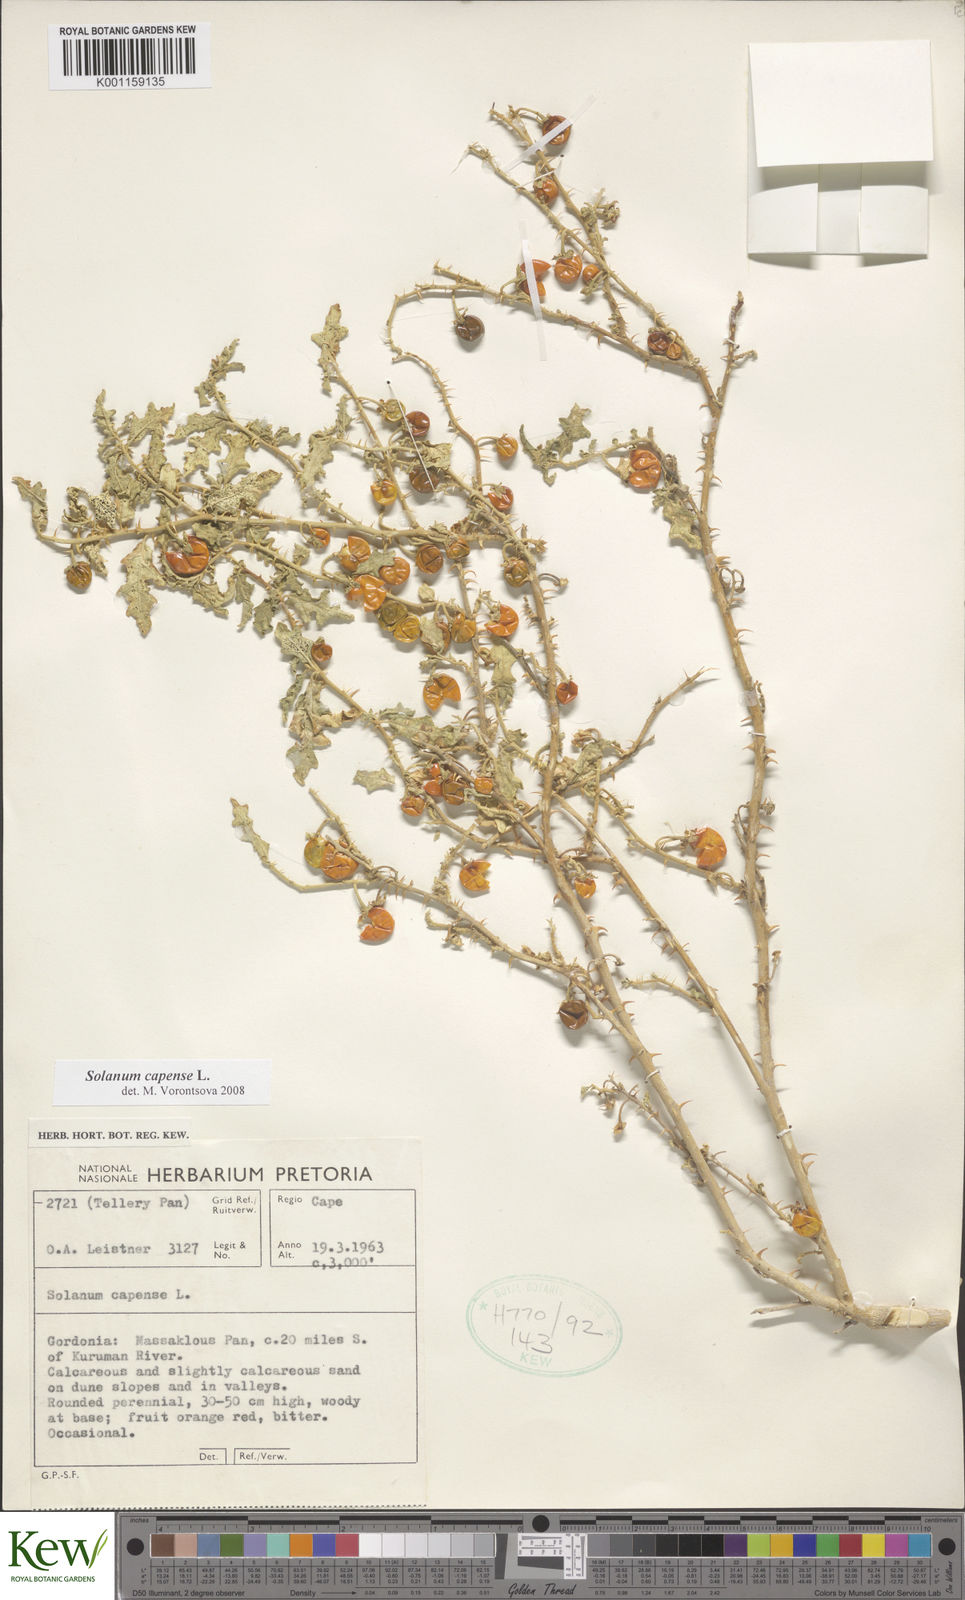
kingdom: Plantae
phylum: Tracheophyta
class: Magnoliopsida
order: Solanales
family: Solanaceae
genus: Solanum
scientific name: Solanum capense
